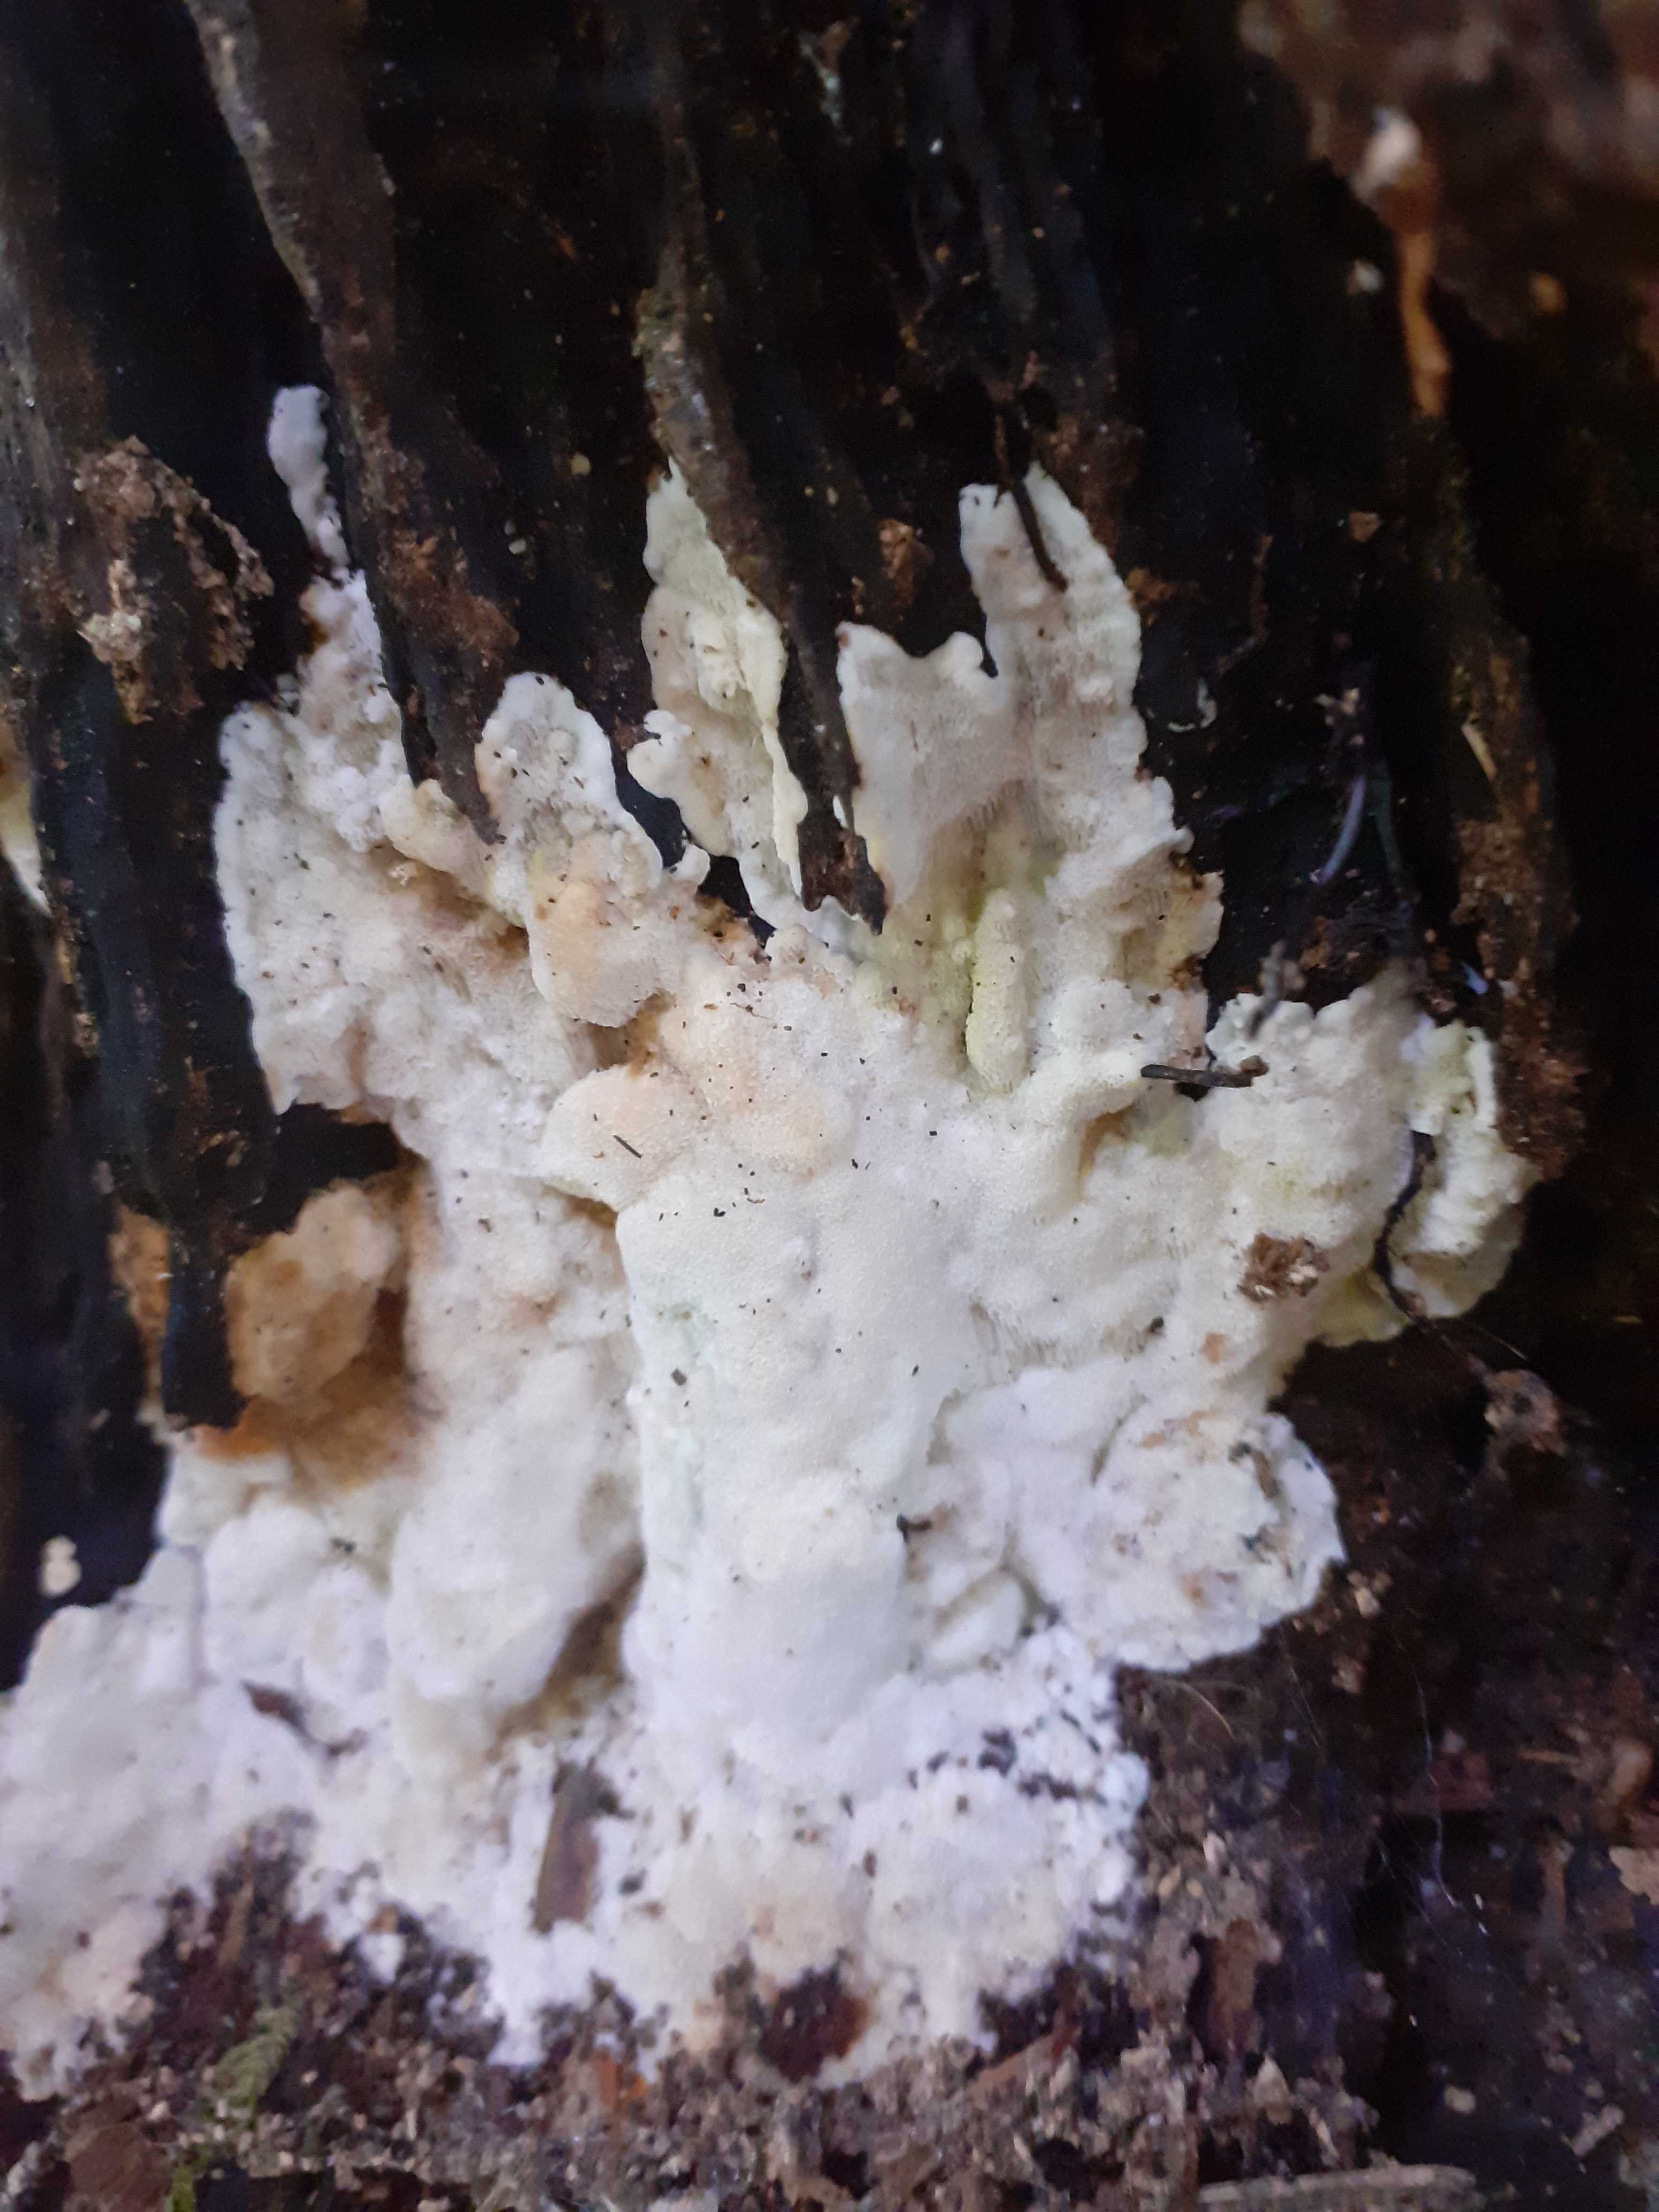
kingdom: Fungi
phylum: Basidiomycota
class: Agaricomycetes
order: Polyporales
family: Meruliaceae
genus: Physisporinus
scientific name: Physisporinus vitreus
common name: mastesvamp
